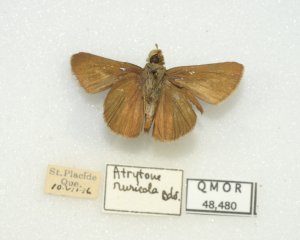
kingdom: Animalia
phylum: Arthropoda
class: Insecta
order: Lepidoptera
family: Hesperiidae
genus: Euphyes
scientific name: Euphyes vestris
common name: Dun Skipper
